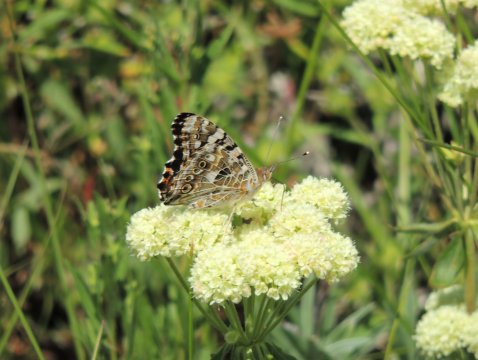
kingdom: Animalia
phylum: Arthropoda
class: Insecta
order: Lepidoptera
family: Nymphalidae
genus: Vanessa
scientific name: Vanessa cardui
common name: Painted Lady
